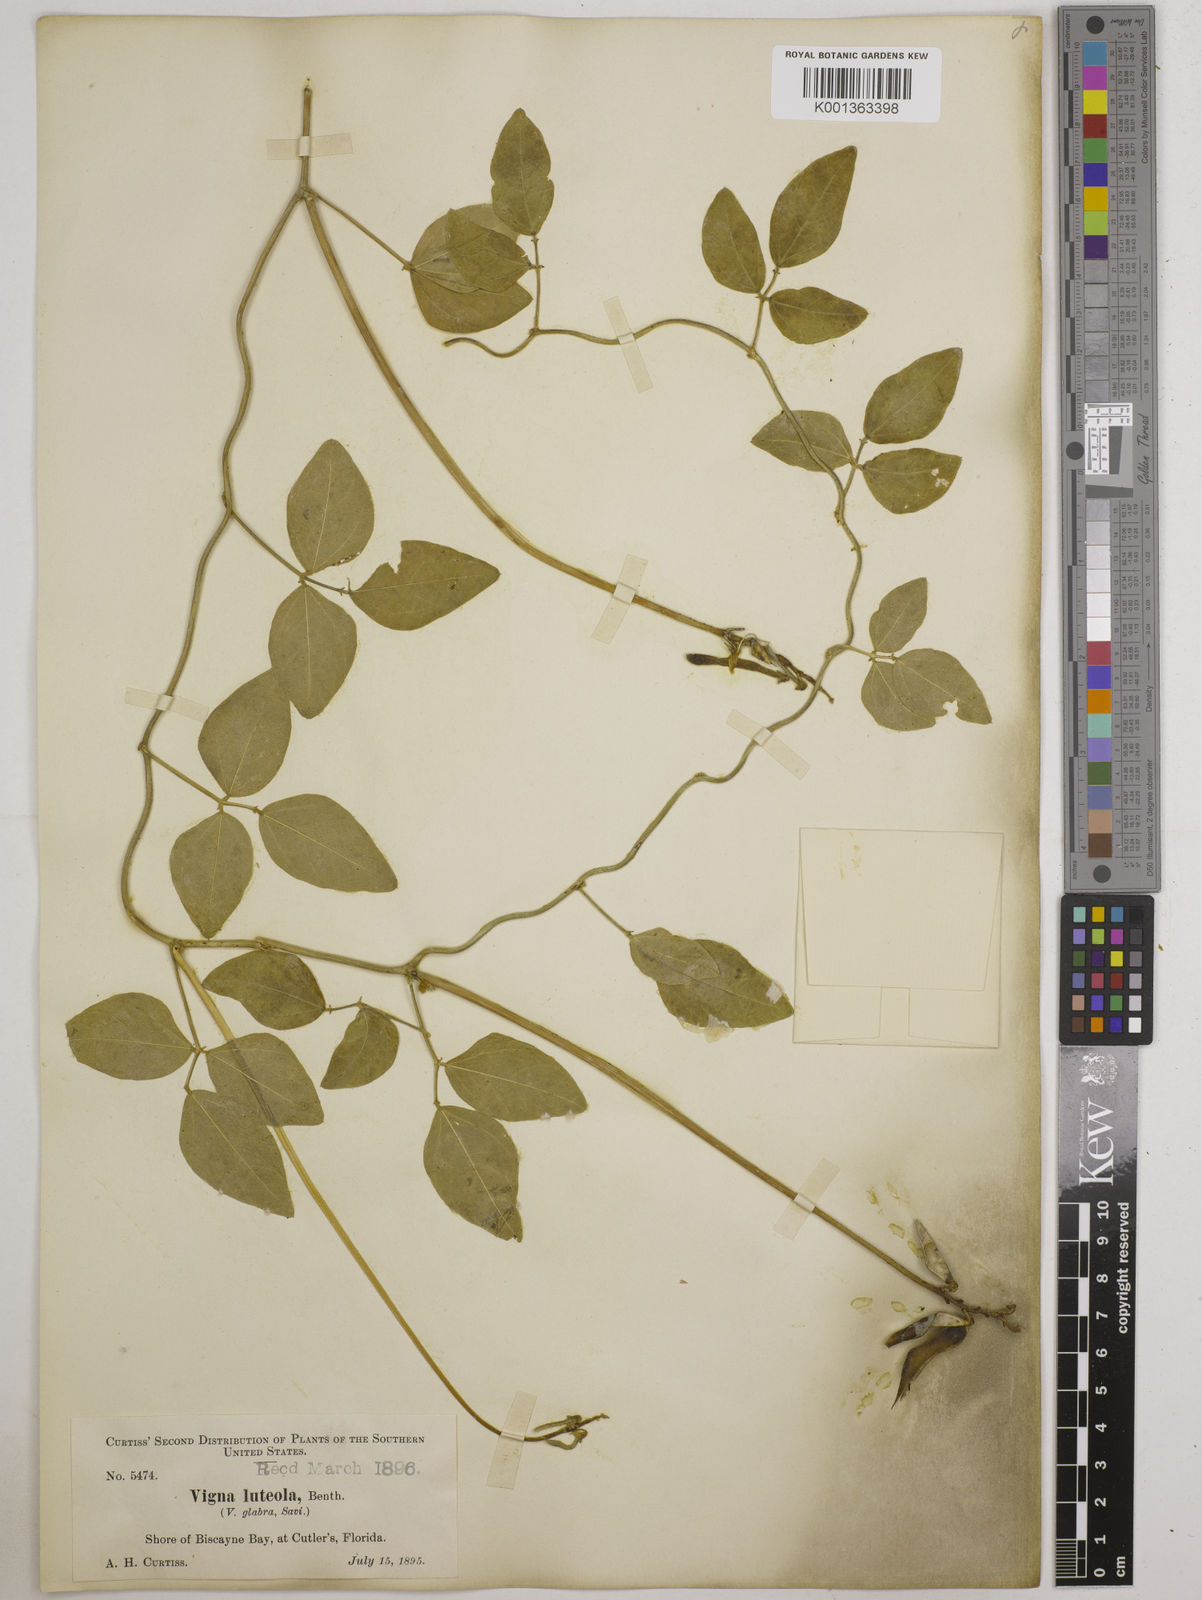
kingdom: Plantae
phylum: Tracheophyta
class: Magnoliopsida
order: Fabales
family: Fabaceae
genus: Vigna
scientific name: Vigna luteola
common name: Hairypod cowpea
